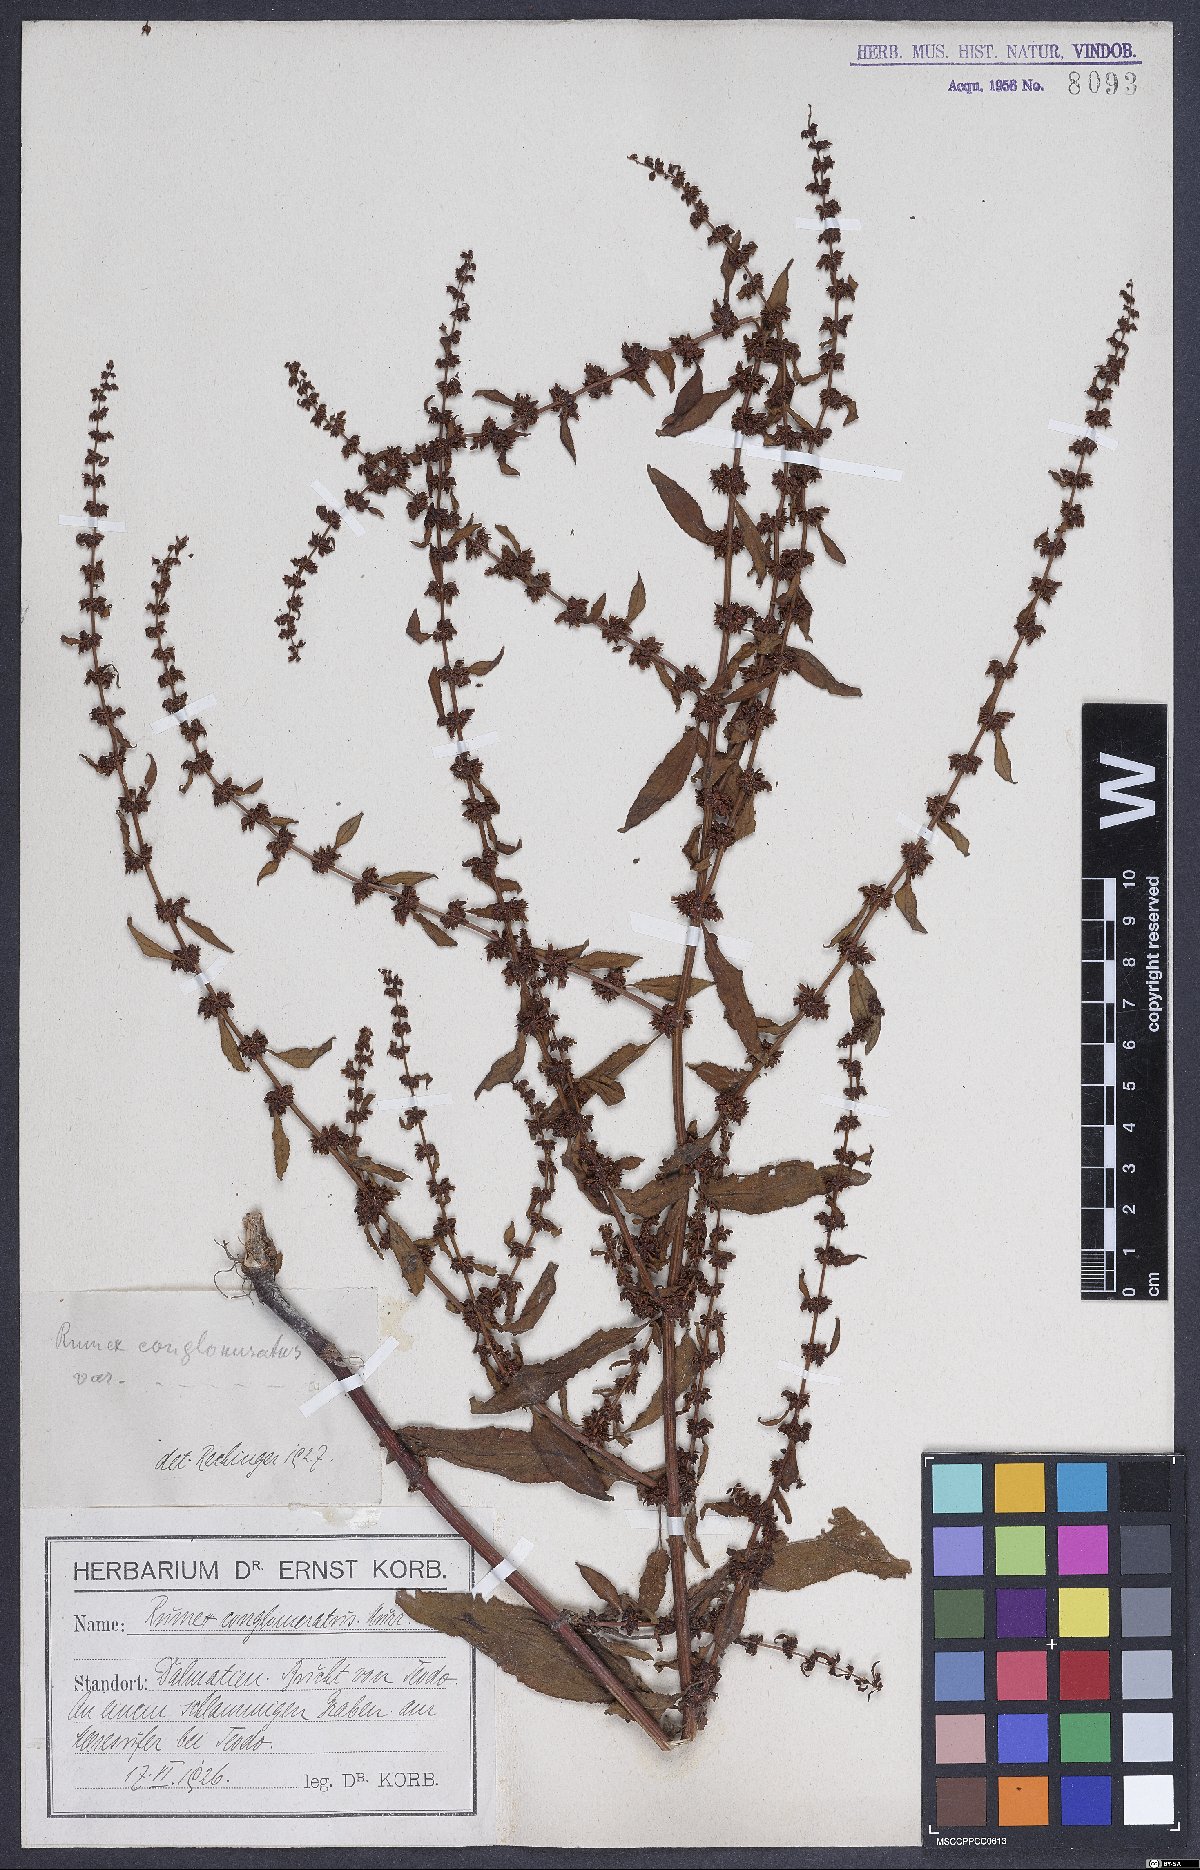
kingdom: Plantae
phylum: Tracheophyta
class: Magnoliopsida
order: Caryophyllales
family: Polygonaceae
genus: Rumex
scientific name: Rumex conglomeratus
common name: Clustered dock
